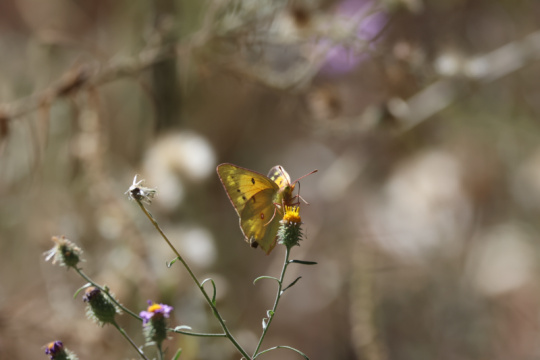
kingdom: Animalia
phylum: Arthropoda
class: Insecta
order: Lepidoptera
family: Pieridae
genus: Colias
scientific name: Colias eurytheme
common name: Orange Sulphur
